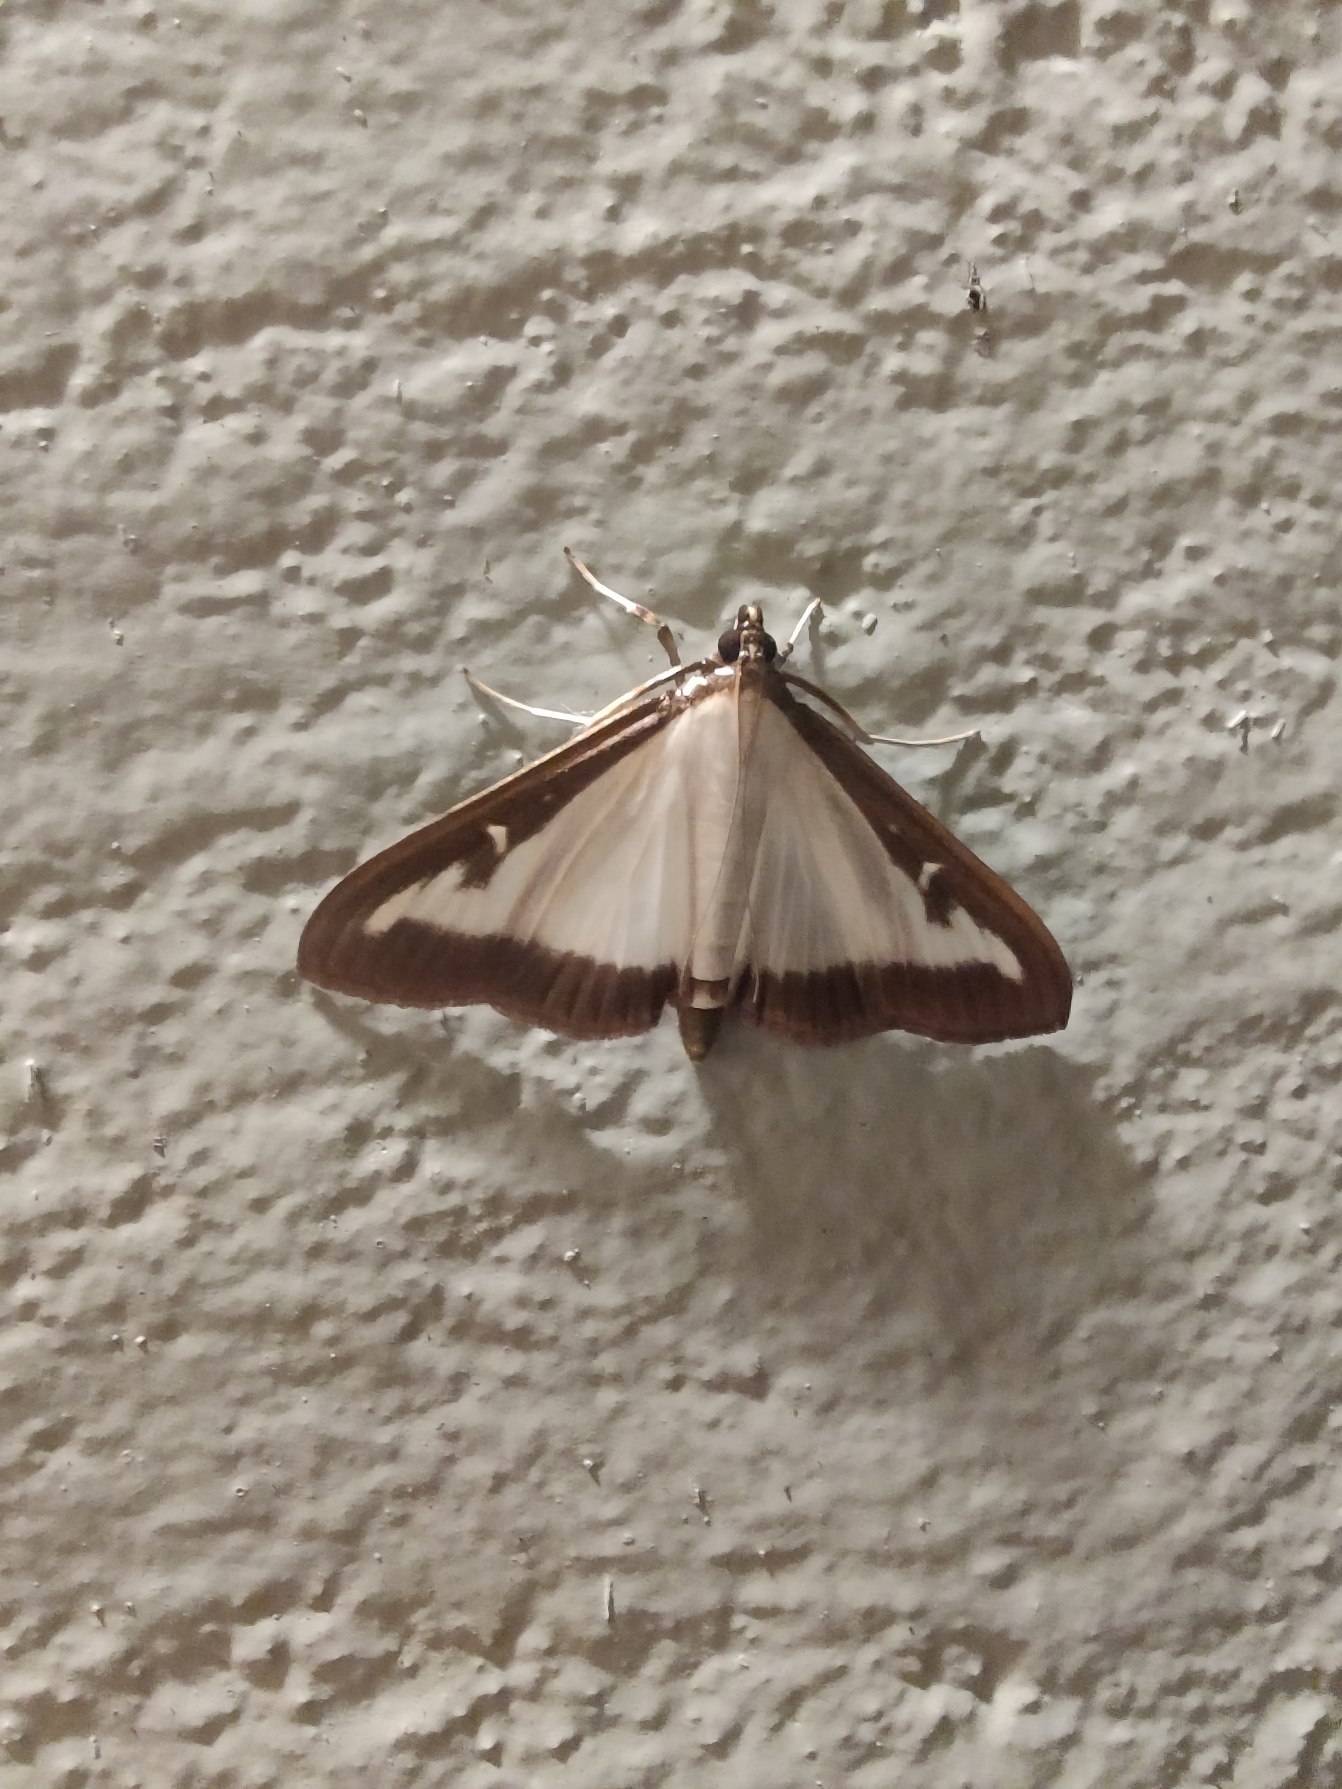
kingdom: Animalia
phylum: Arthropoda
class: Insecta
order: Lepidoptera
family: Crambidae
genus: Cydalima
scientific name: Cydalima perspectalis
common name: Buksbomhalvmøl
